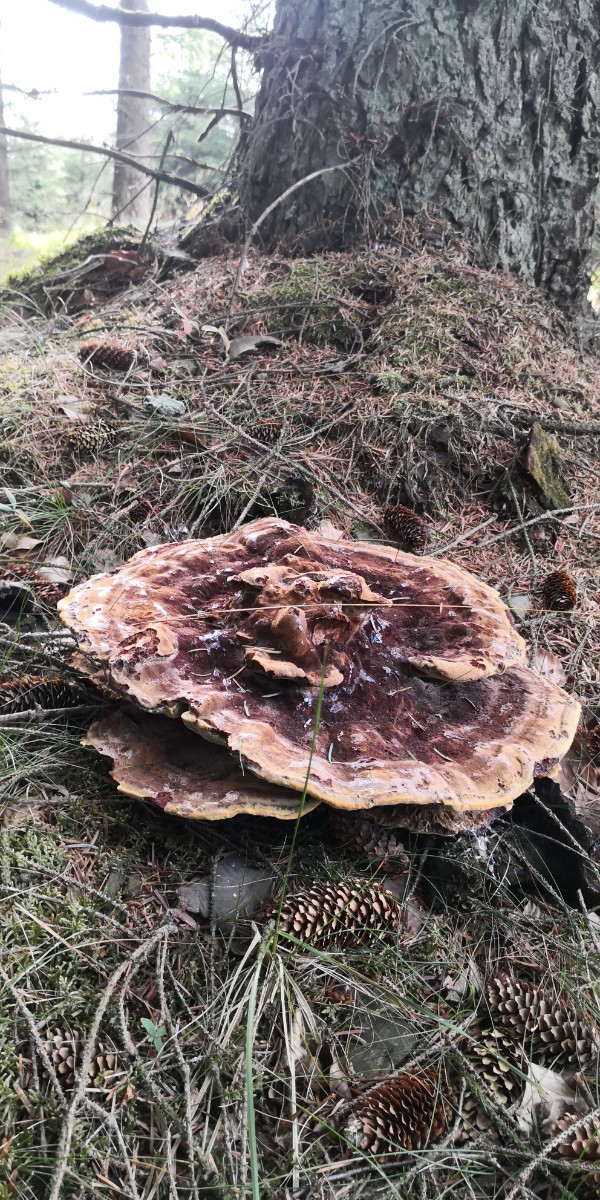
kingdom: Fungi
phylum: Basidiomycota
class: Agaricomycetes
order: Polyporales
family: Laetiporaceae
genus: Phaeolus
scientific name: Phaeolus schweinitzii
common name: brunporesvamp
